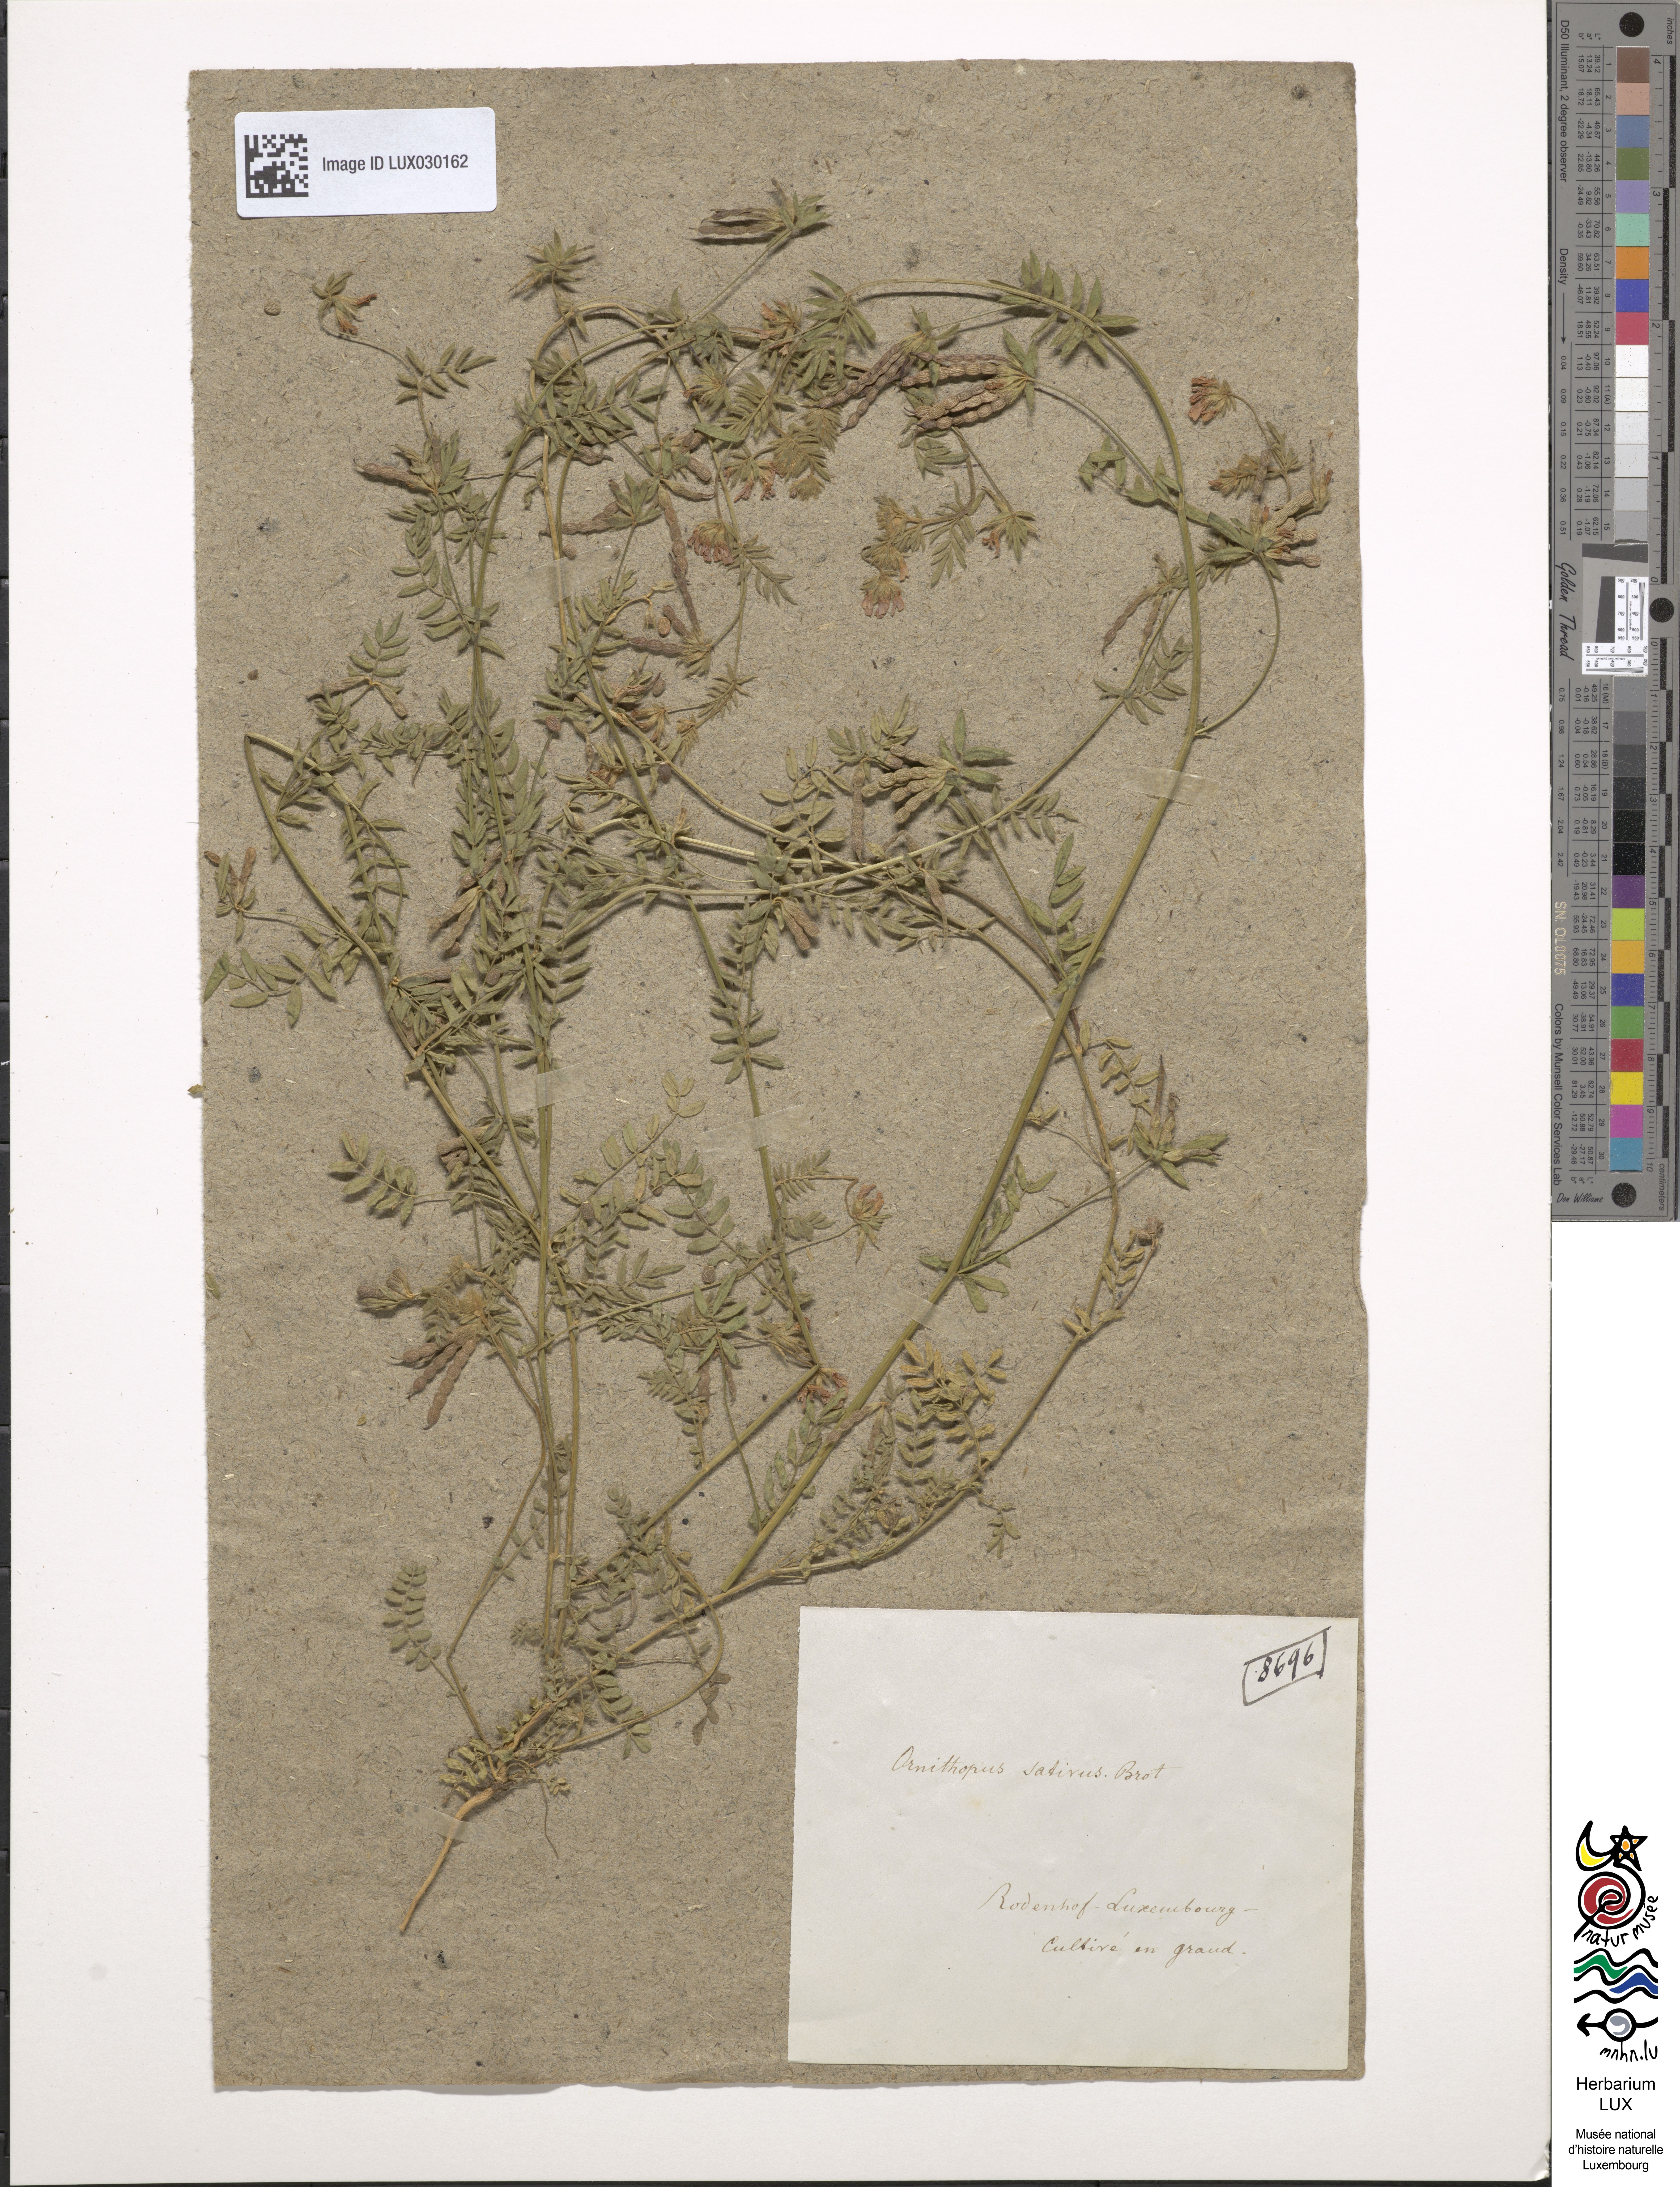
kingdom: Plantae
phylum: Tracheophyta
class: Magnoliopsida
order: Fabales
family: Fabaceae
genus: Ornithopus
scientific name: Ornithopus sativus
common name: Serradella
